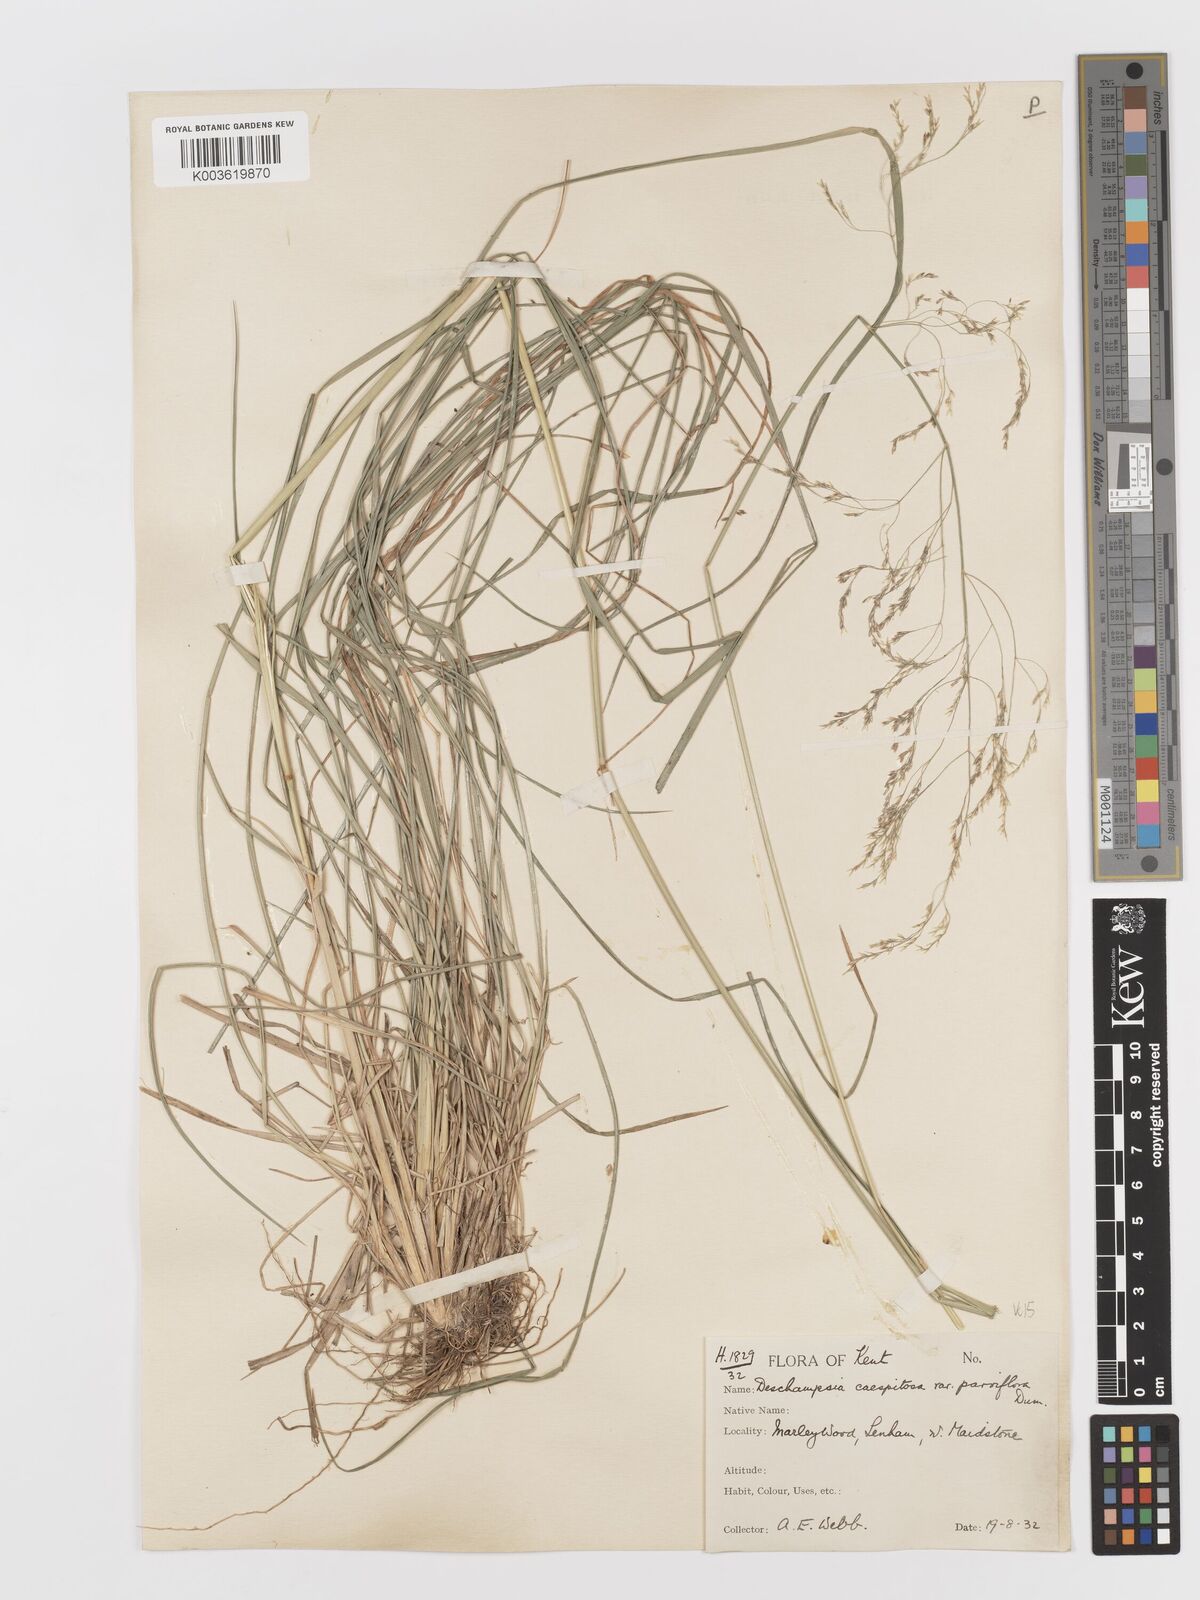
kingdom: Plantae
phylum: Tracheophyta
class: Liliopsida
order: Poales
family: Poaceae
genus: Deschampsia
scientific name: Deschampsia cespitosa
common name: Tufted hair-grass
